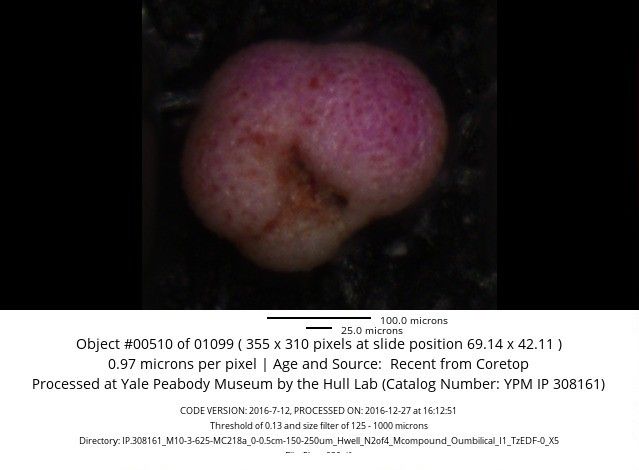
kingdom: Chromista
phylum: Foraminifera
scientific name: Foraminifera
